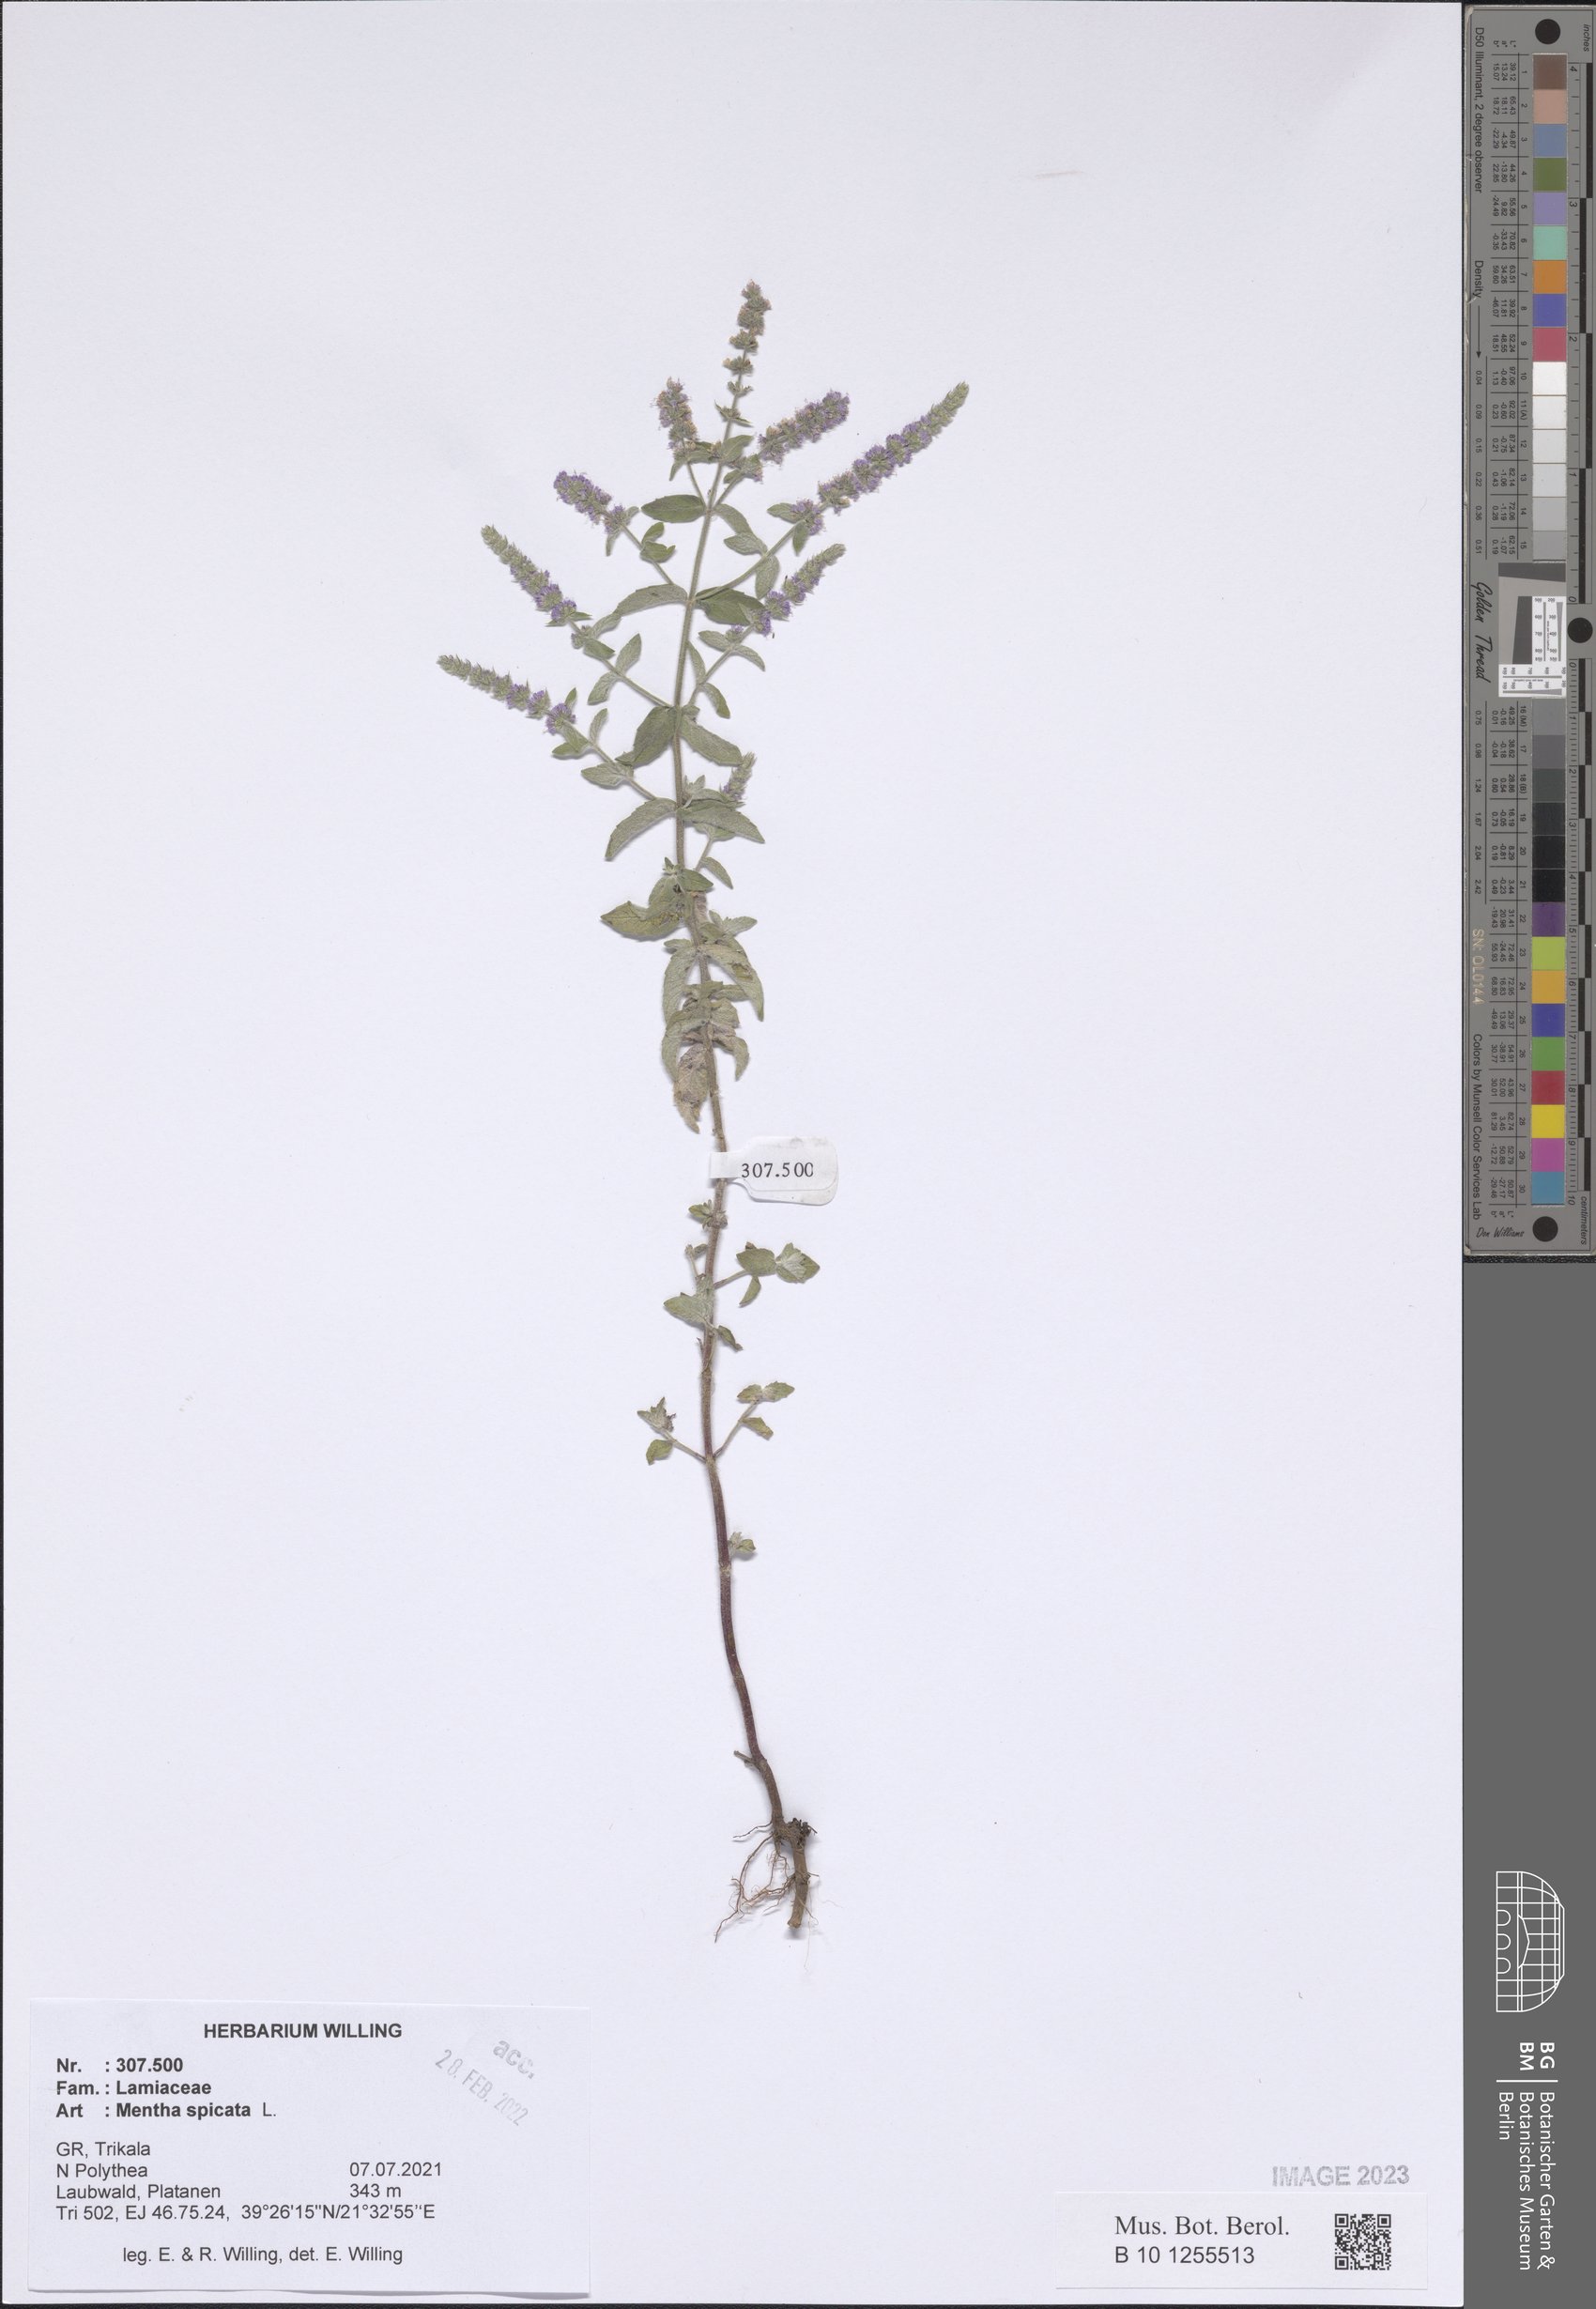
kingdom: Plantae
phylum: Tracheophyta
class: Magnoliopsida
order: Lamiales
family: Lamiaceae
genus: Mentha
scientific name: Mentha spicata
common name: Spearmint
